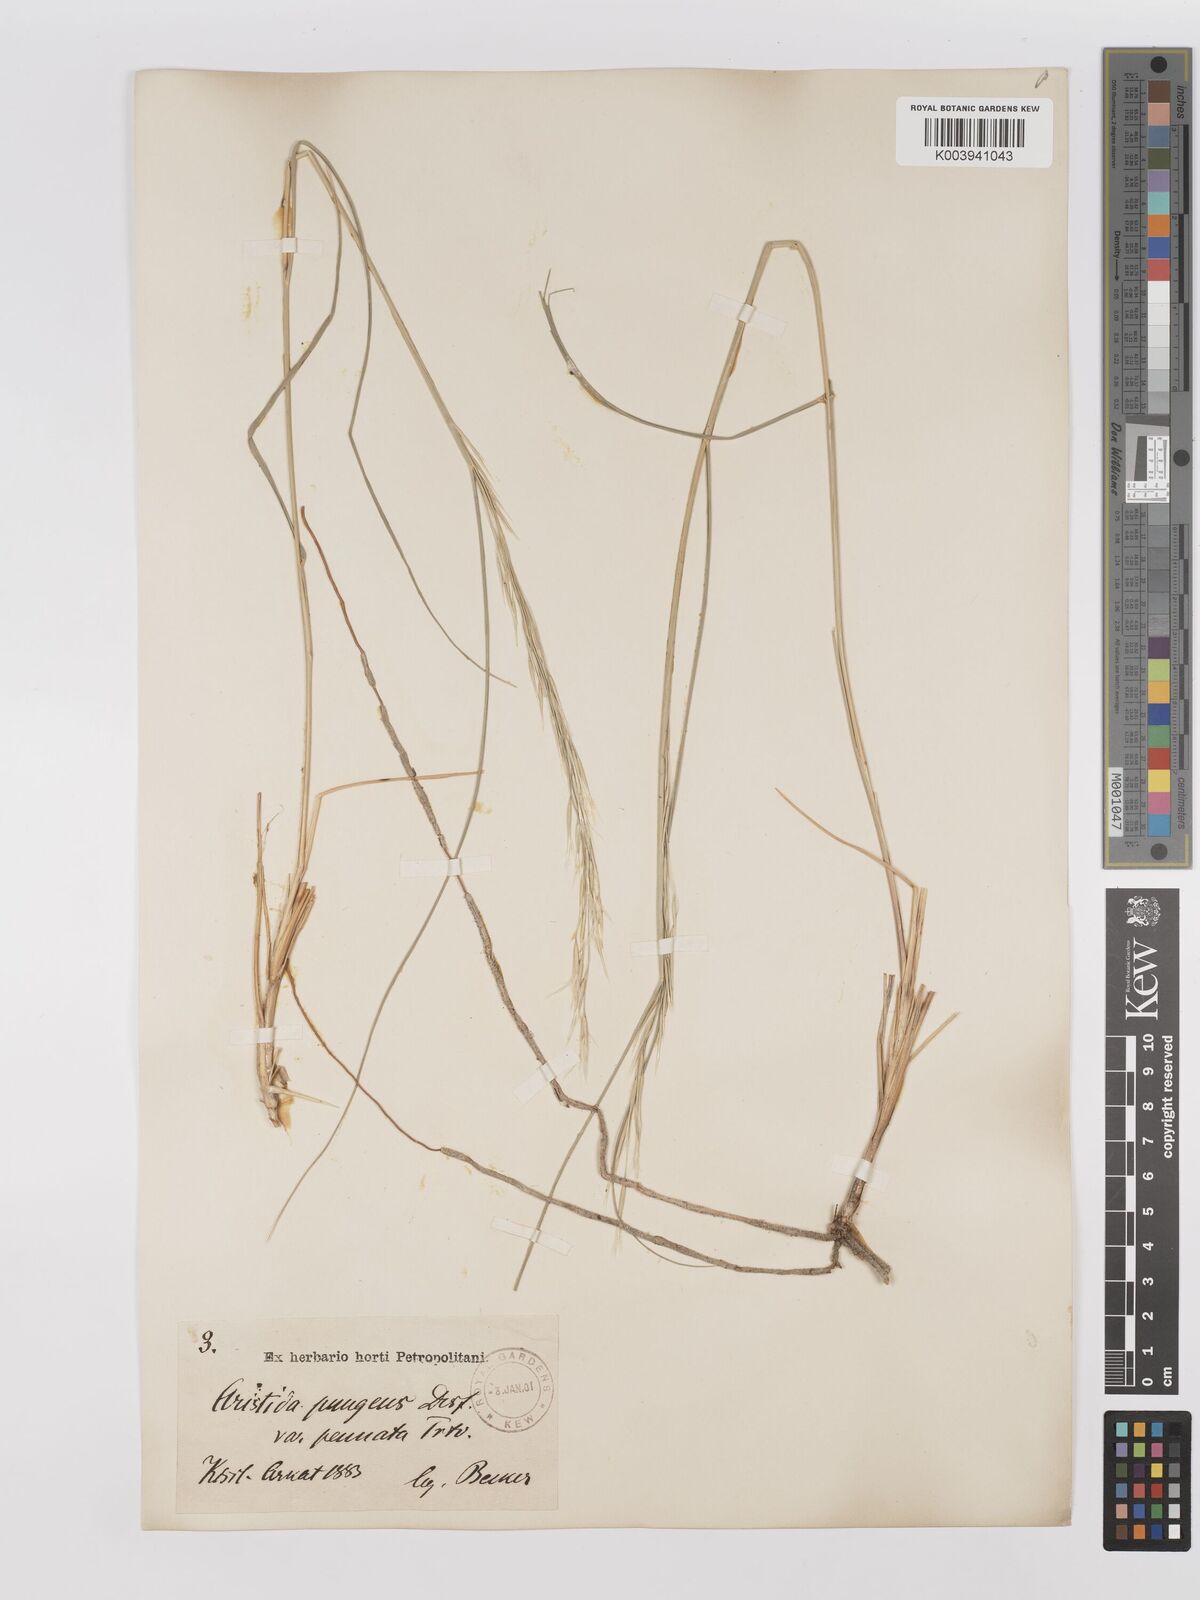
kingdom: Plantae
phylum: Tracheophyta
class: Liliopsida
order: Poales
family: Poaceae
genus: Stipagrostis
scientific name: Stipagrostis pungens
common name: Three-awn grass
